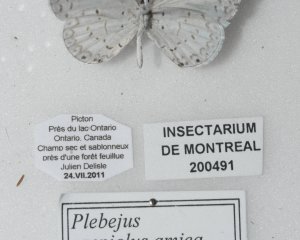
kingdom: Animalia
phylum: Arthropoda
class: Insecta
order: Lepidoptera
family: Lycaenidae
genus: Cyaniris
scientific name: Cyaniris neglecta
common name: Summer Azure
